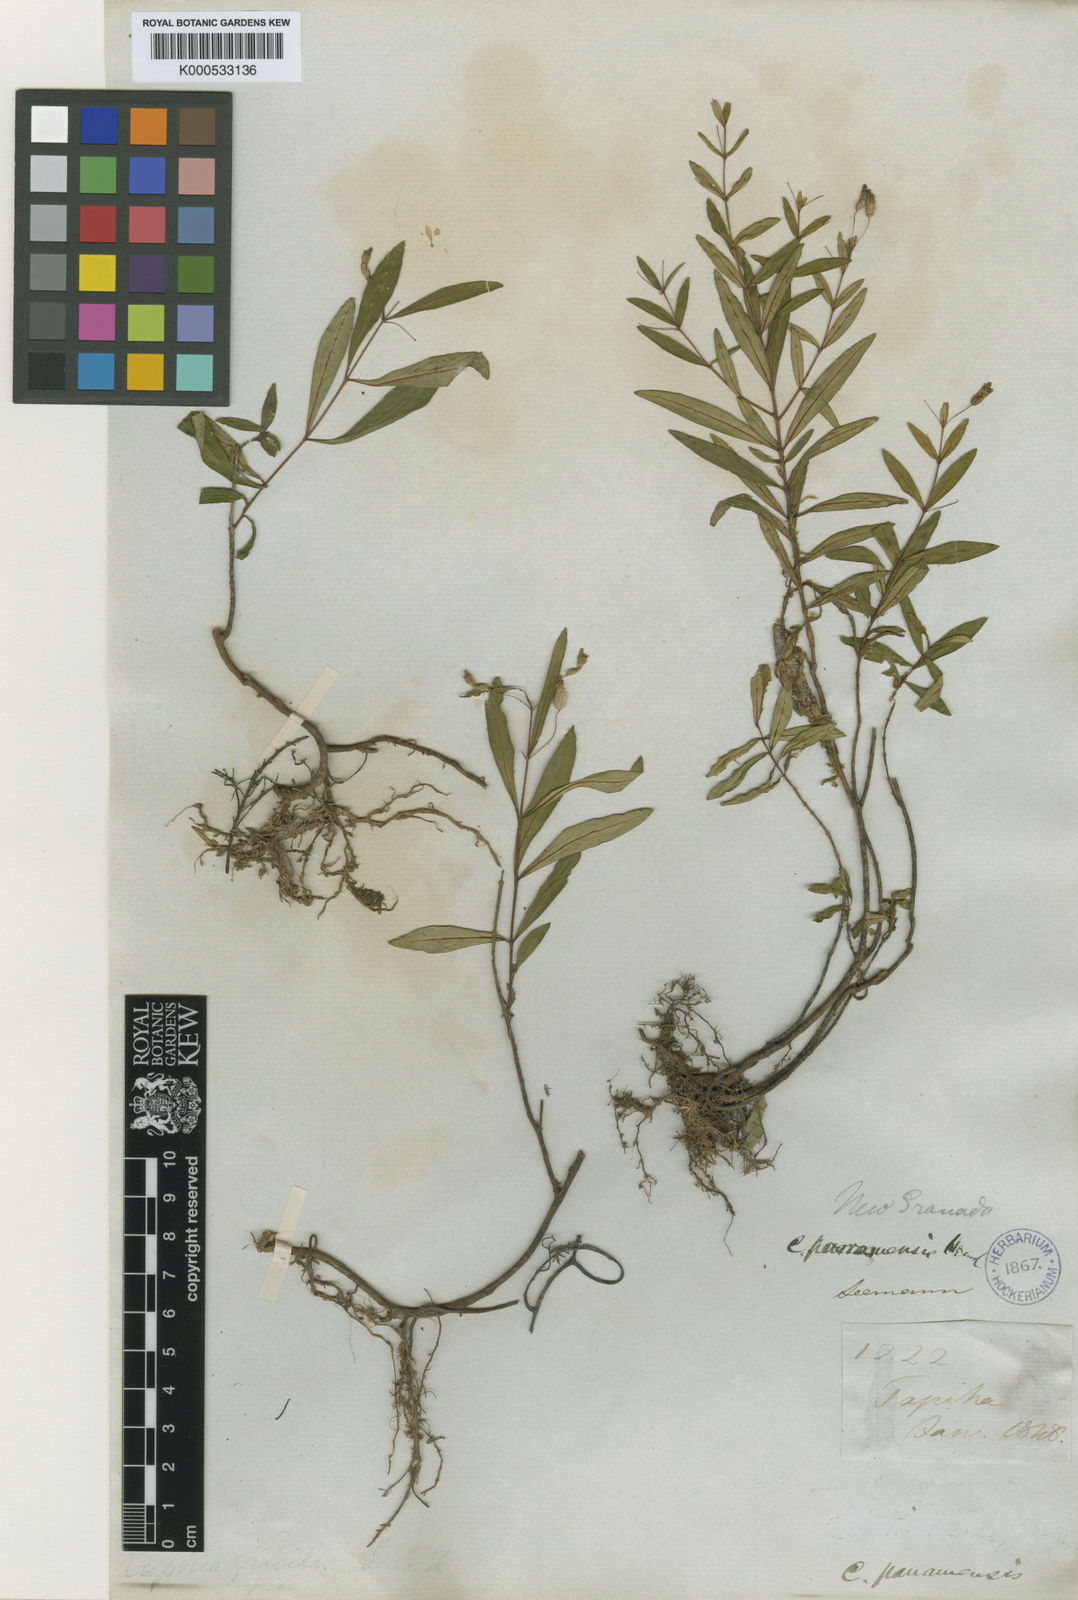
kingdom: Plantae
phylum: Tracheophyta
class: Magnoliopsida
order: Myrtales
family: Lythraceae
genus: Cuphea
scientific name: Cuphea utriculosa
